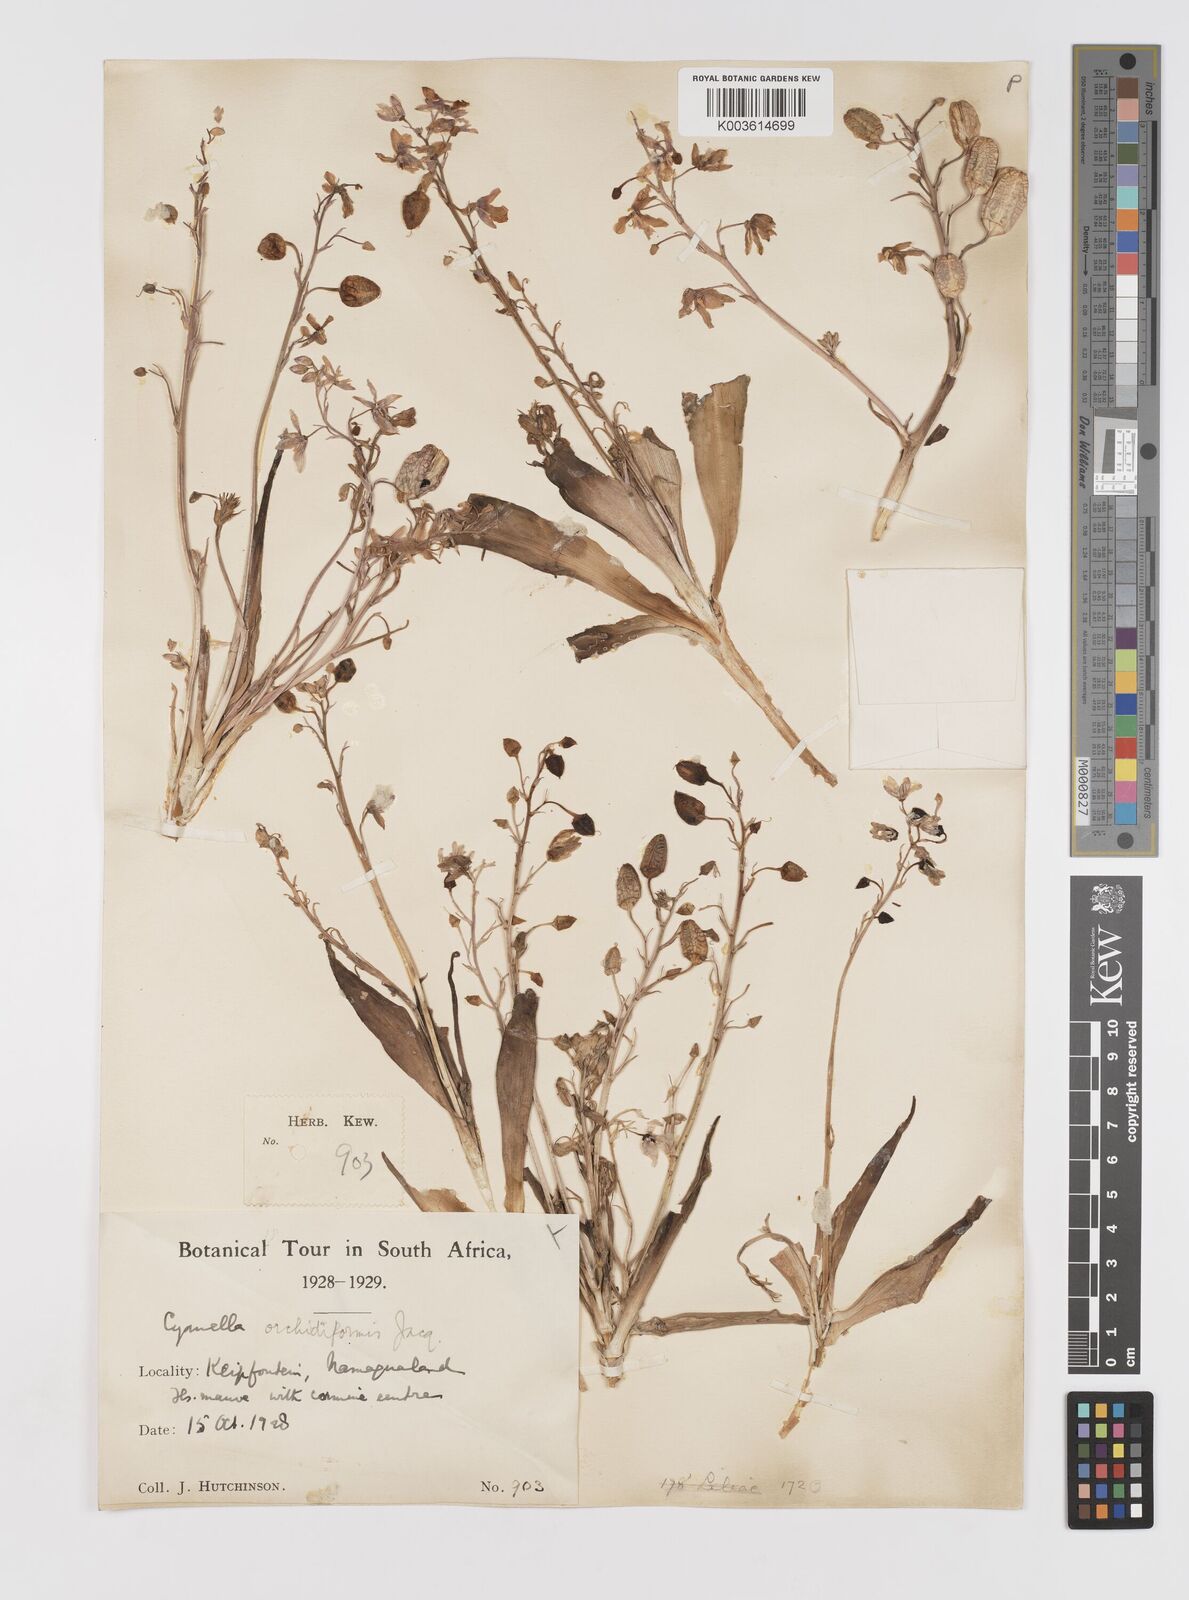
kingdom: Plantae
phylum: Tracheophyta
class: Liliopsida
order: Asparagales
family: Tecophilaeaceae
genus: Cyanella
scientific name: Cyanella orchidiformis
